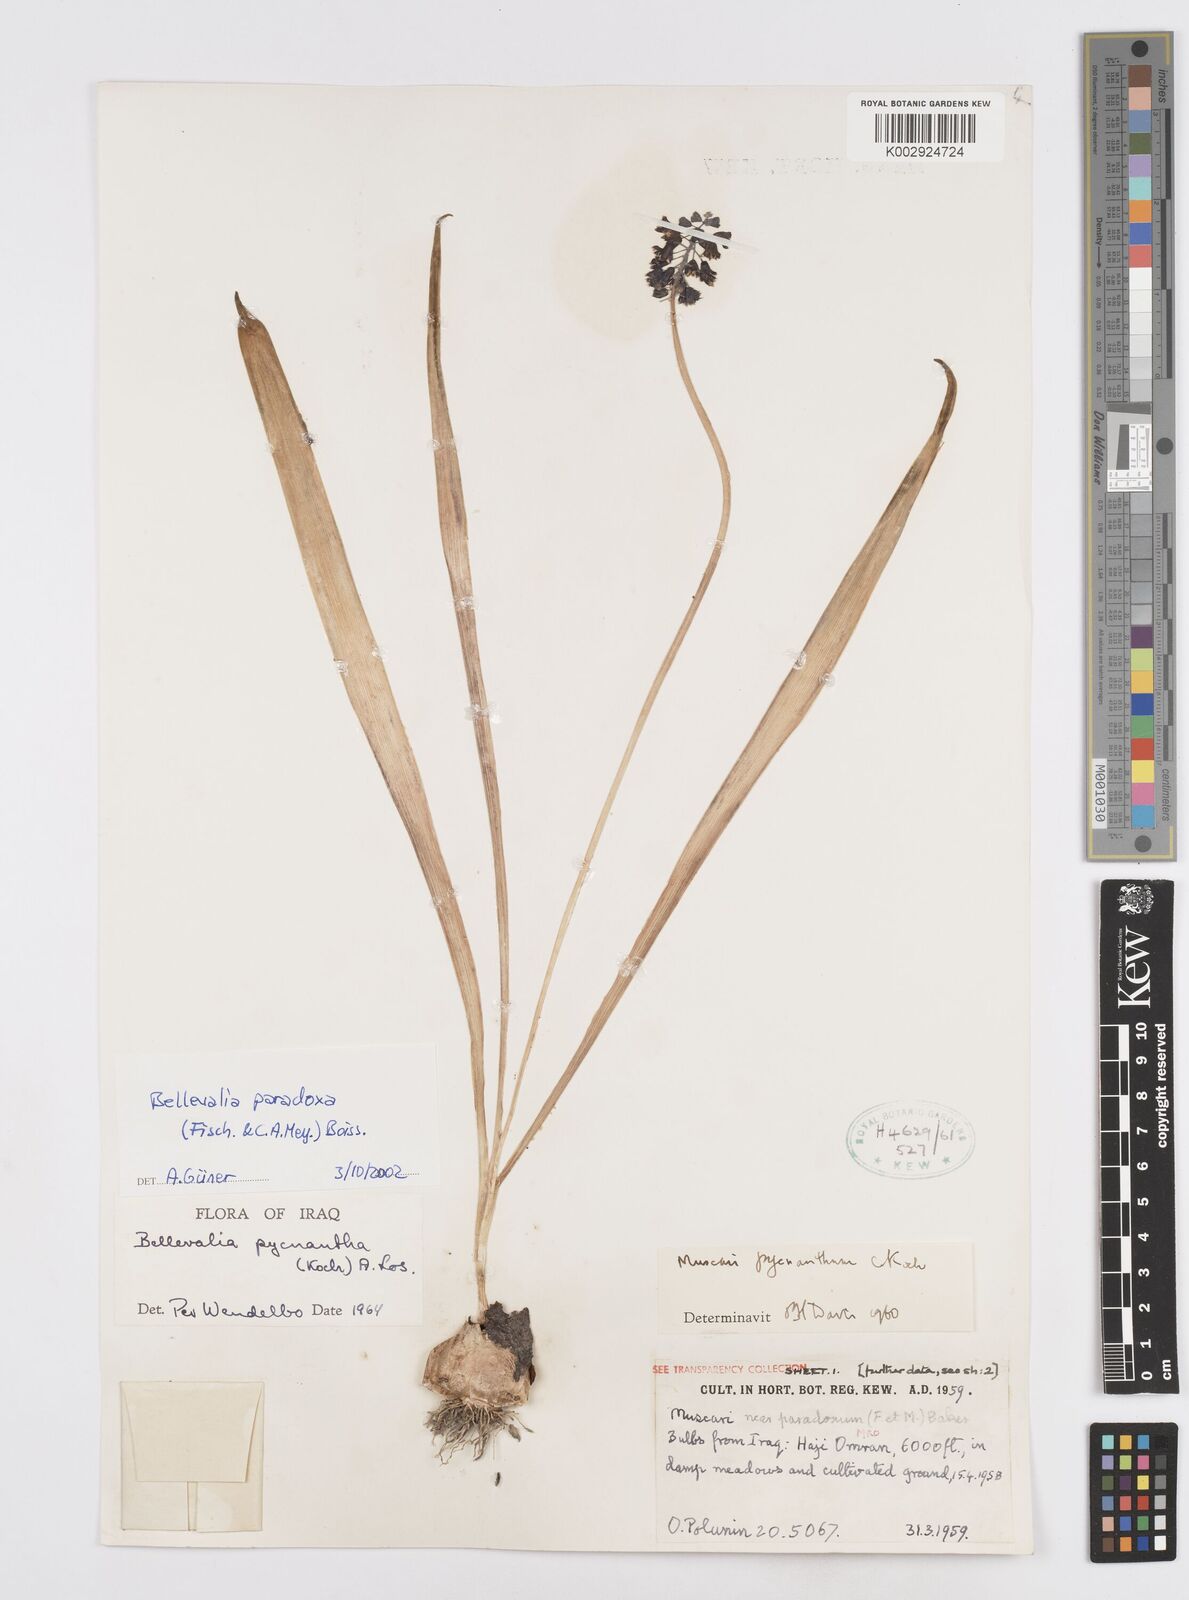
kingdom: Plantae
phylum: Tracheophyta
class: Liliopsida
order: Asparagales
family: Asparagaceae
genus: Bellevalia
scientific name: Bellevalia paradoxa
